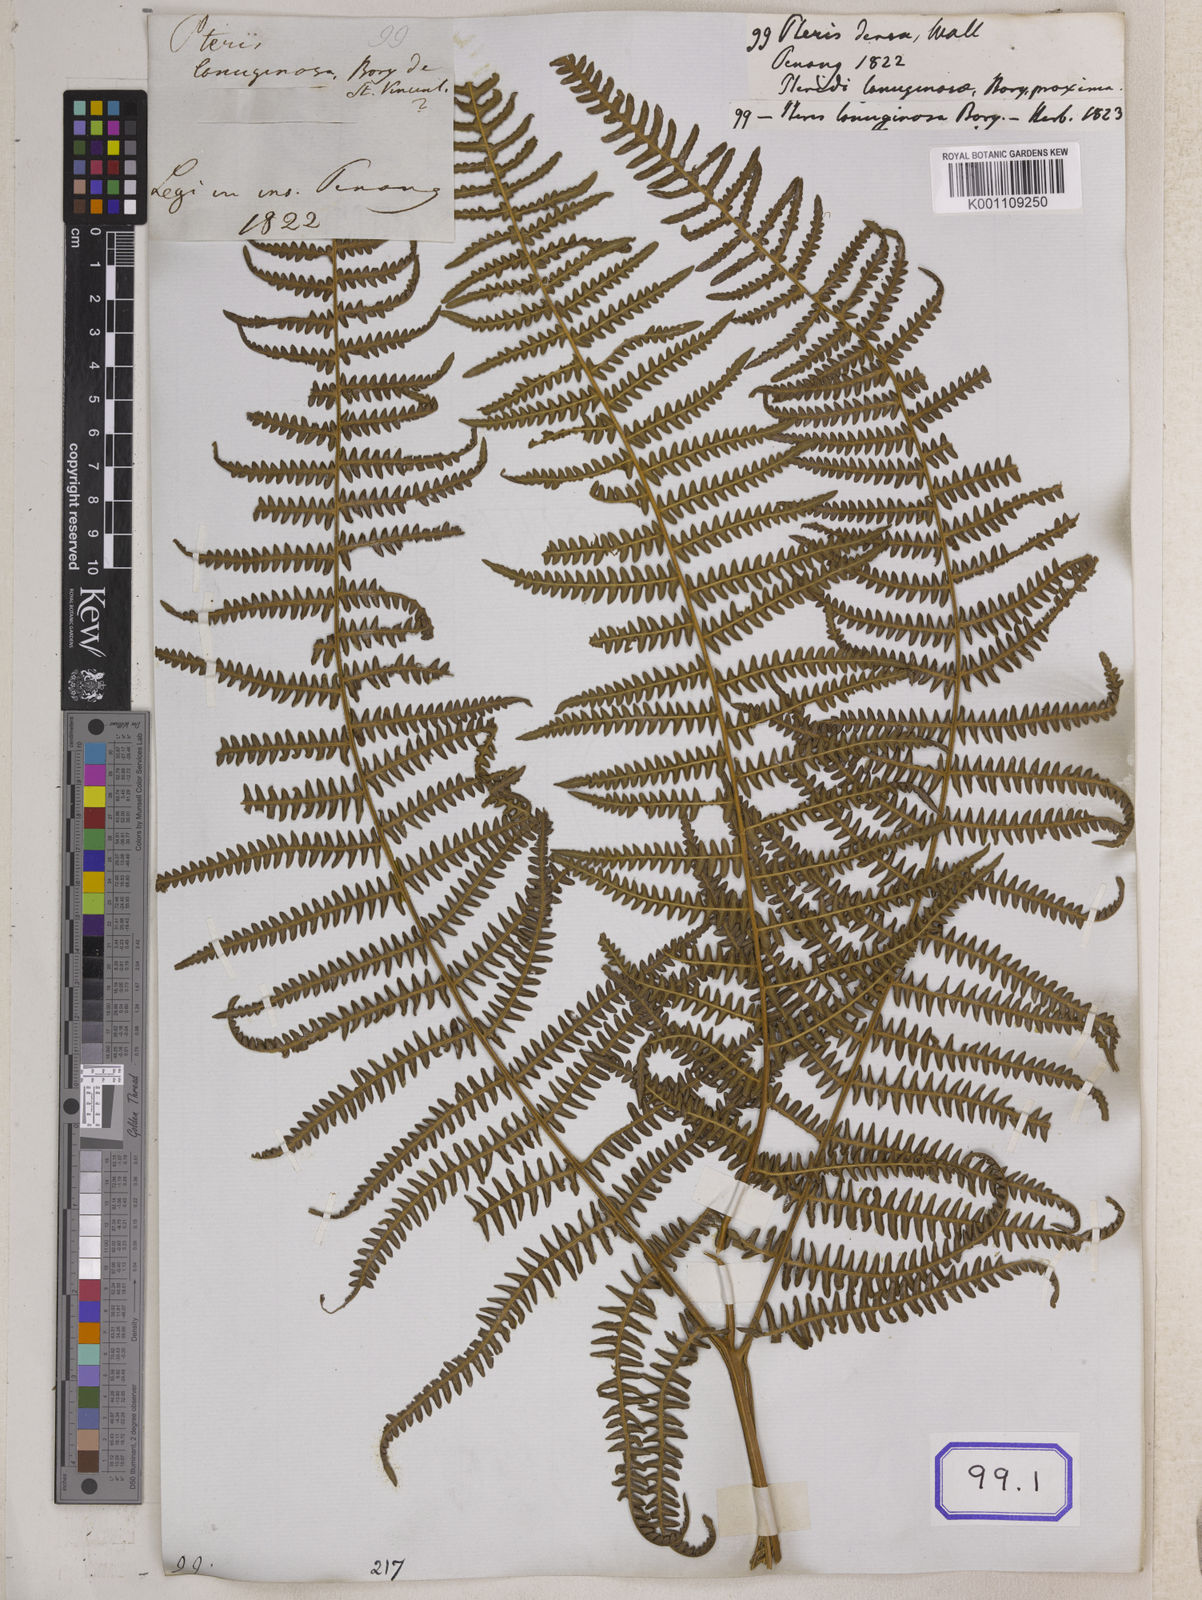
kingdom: Plantae
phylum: Tracheophyta
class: Polypodiopsida
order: Polypodiales
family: Dennstaedtiaceae
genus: Pteridium
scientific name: Pteridium aquilinum
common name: Bracken
